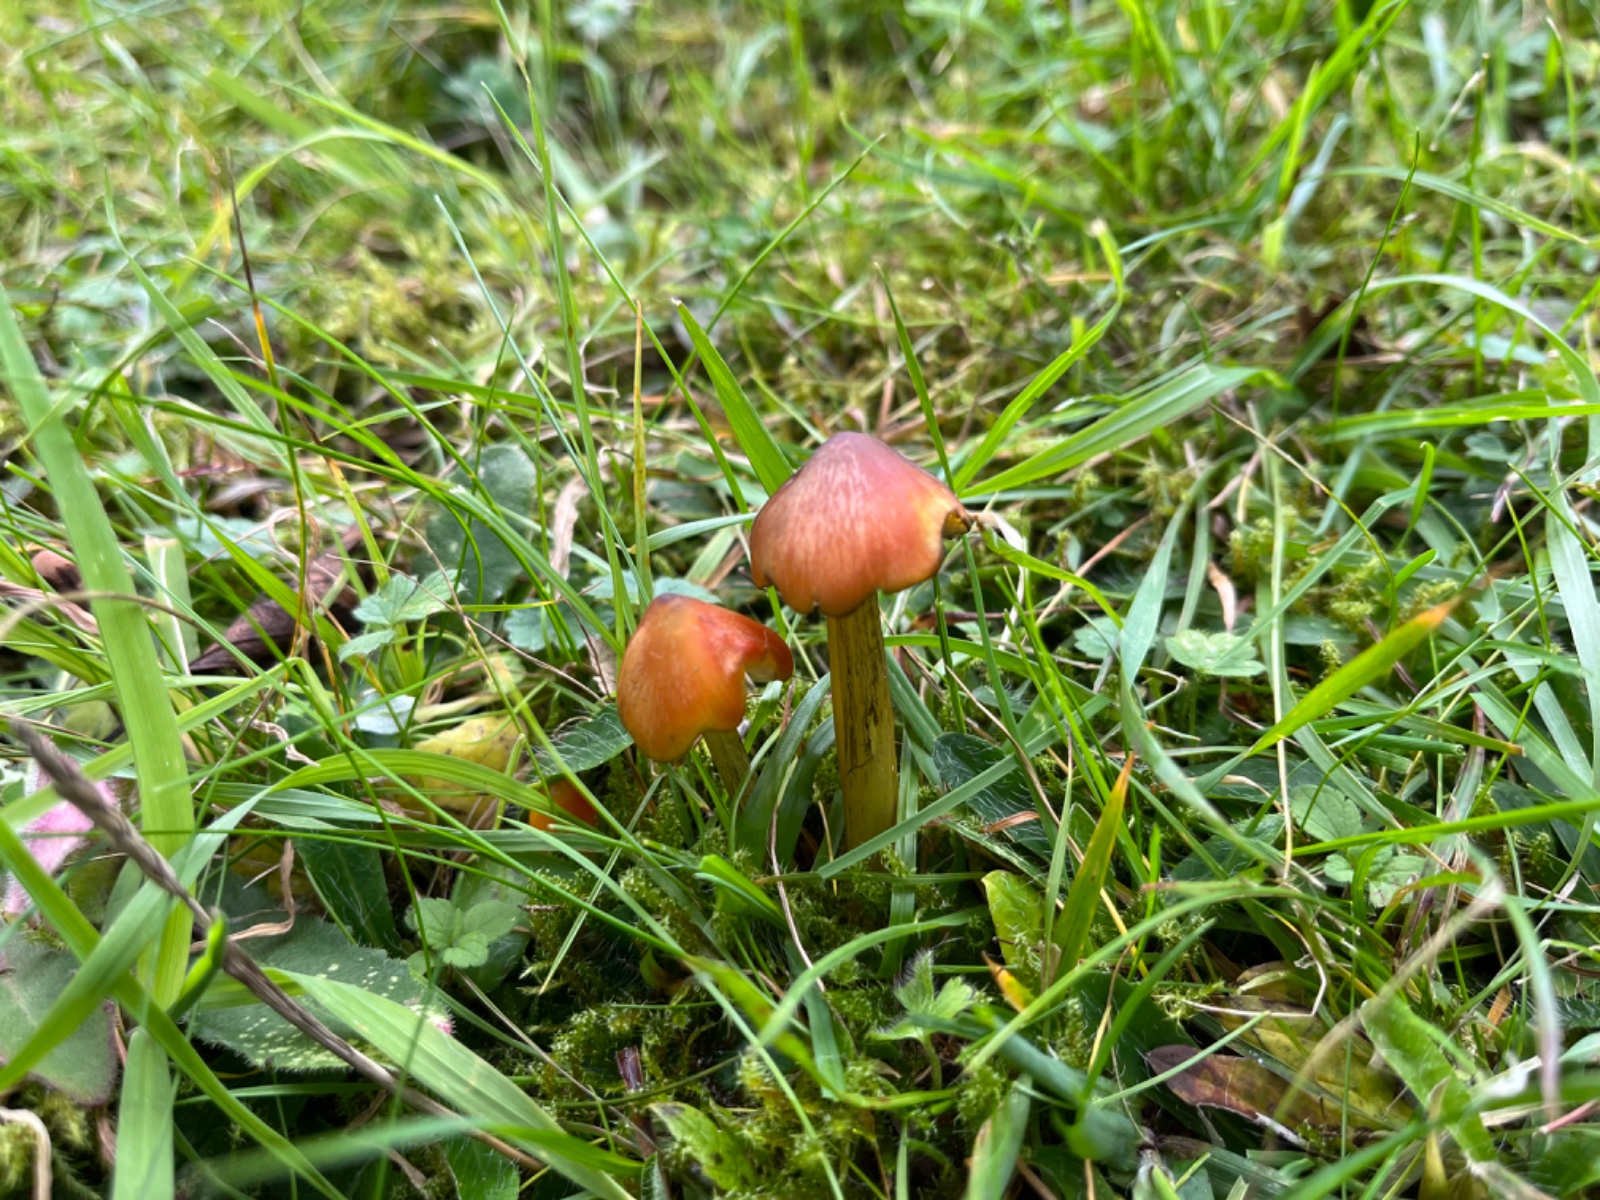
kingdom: Fungi
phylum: Basidiomycota
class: Agaricomycetes
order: Agaricales
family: Hygrophoraceae
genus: Hygrocybe
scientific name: Hygrocybe conica
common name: kegle-vokshat
